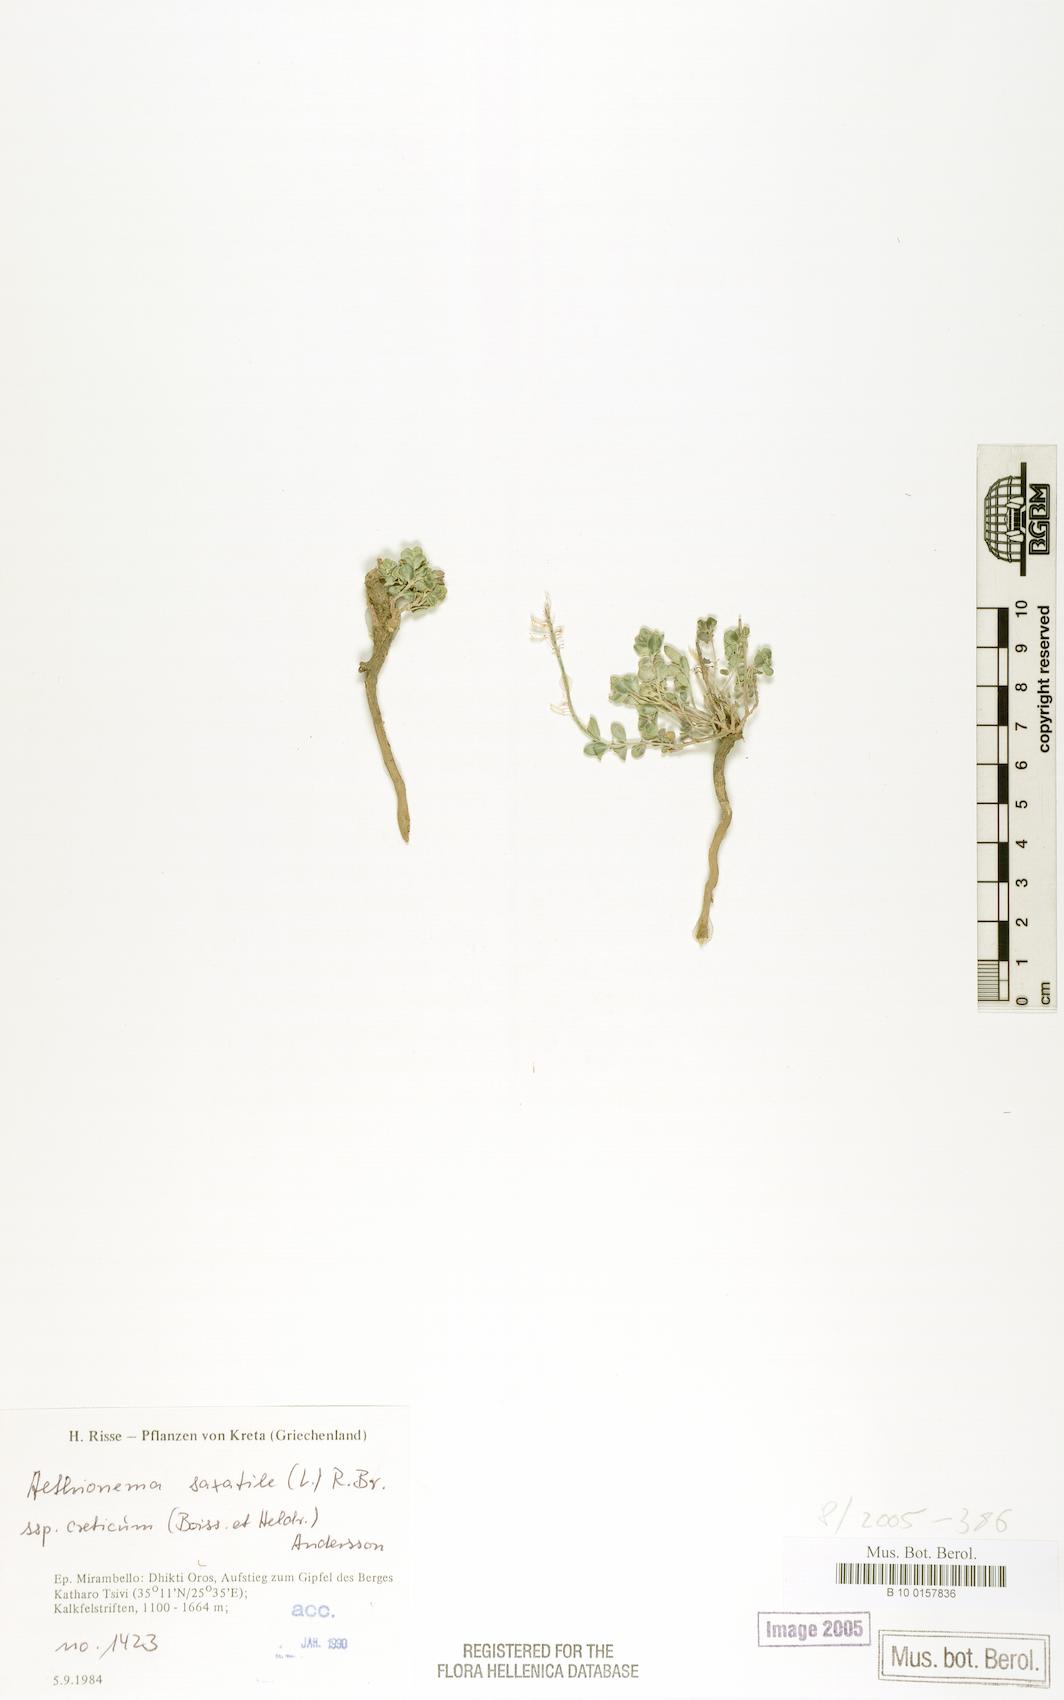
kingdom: Plantae
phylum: Tracheophyta
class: Magnoliopsida
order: Brassicales
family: Brassicaceae
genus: Aethionema
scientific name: Aethionema saxatile
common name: Burnt candytuft
